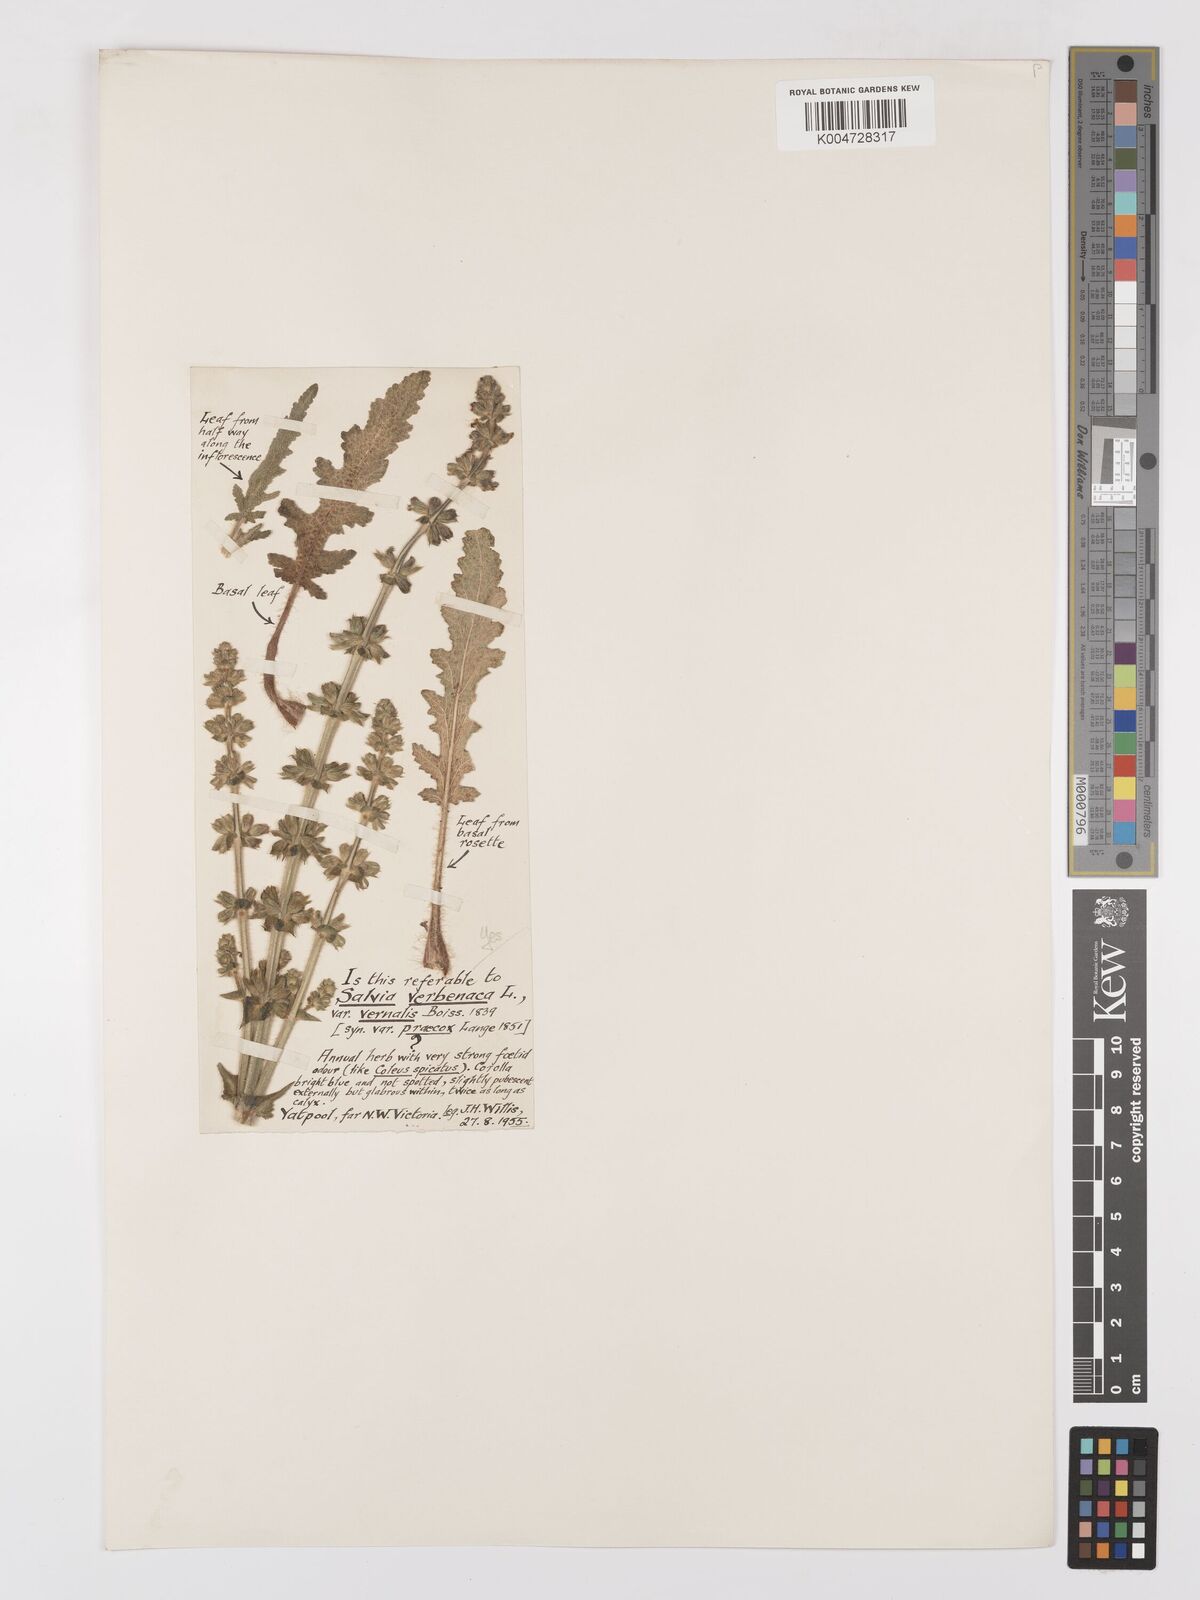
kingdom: Plantae
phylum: Tracheophyta
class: Magnoliopsida
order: Lamiales
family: Lamiaceae
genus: Salvia
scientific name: Salvia verbenaca
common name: Wild clary
